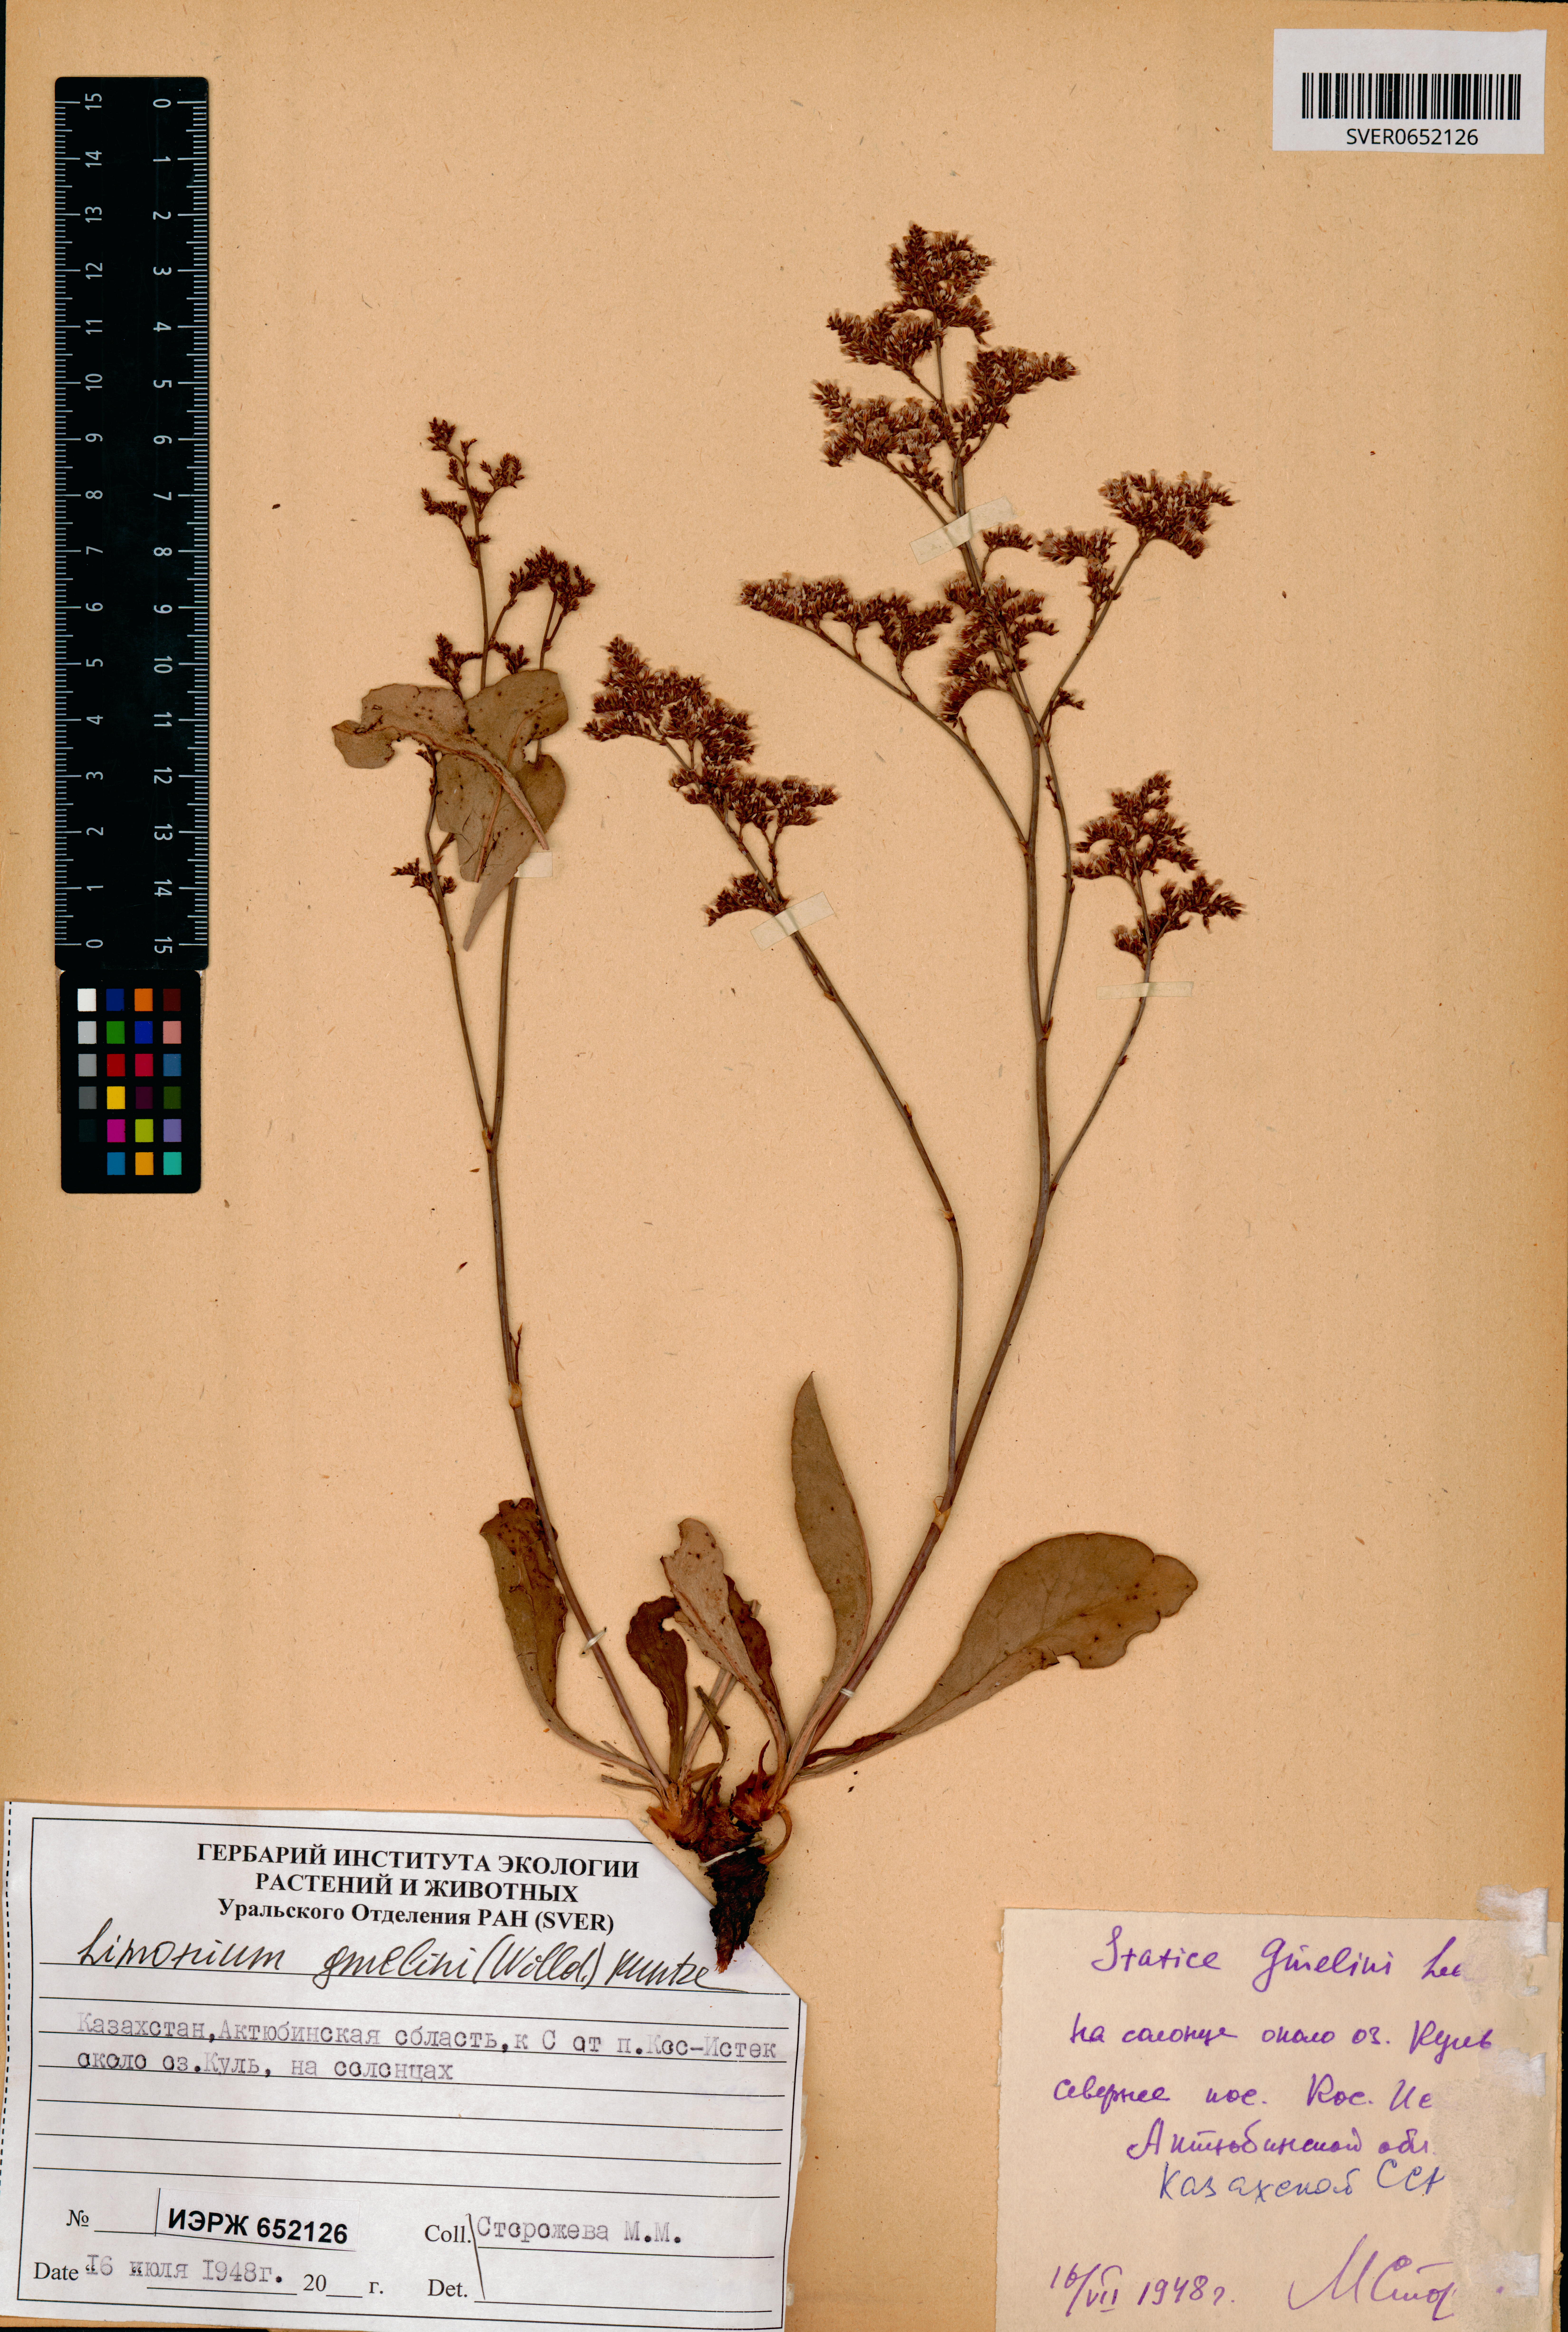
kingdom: Plantae
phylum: Tracheophyta
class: Magnoliopsida
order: Caryophyllales
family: Plumbaginaceae
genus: Limonium
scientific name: Limonium gmelini
